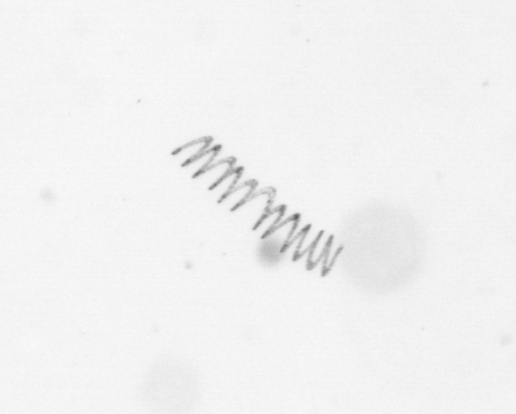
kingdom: Chromista
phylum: Ochrophyta
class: Bacillariophyceae
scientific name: Bacillariophyceae
